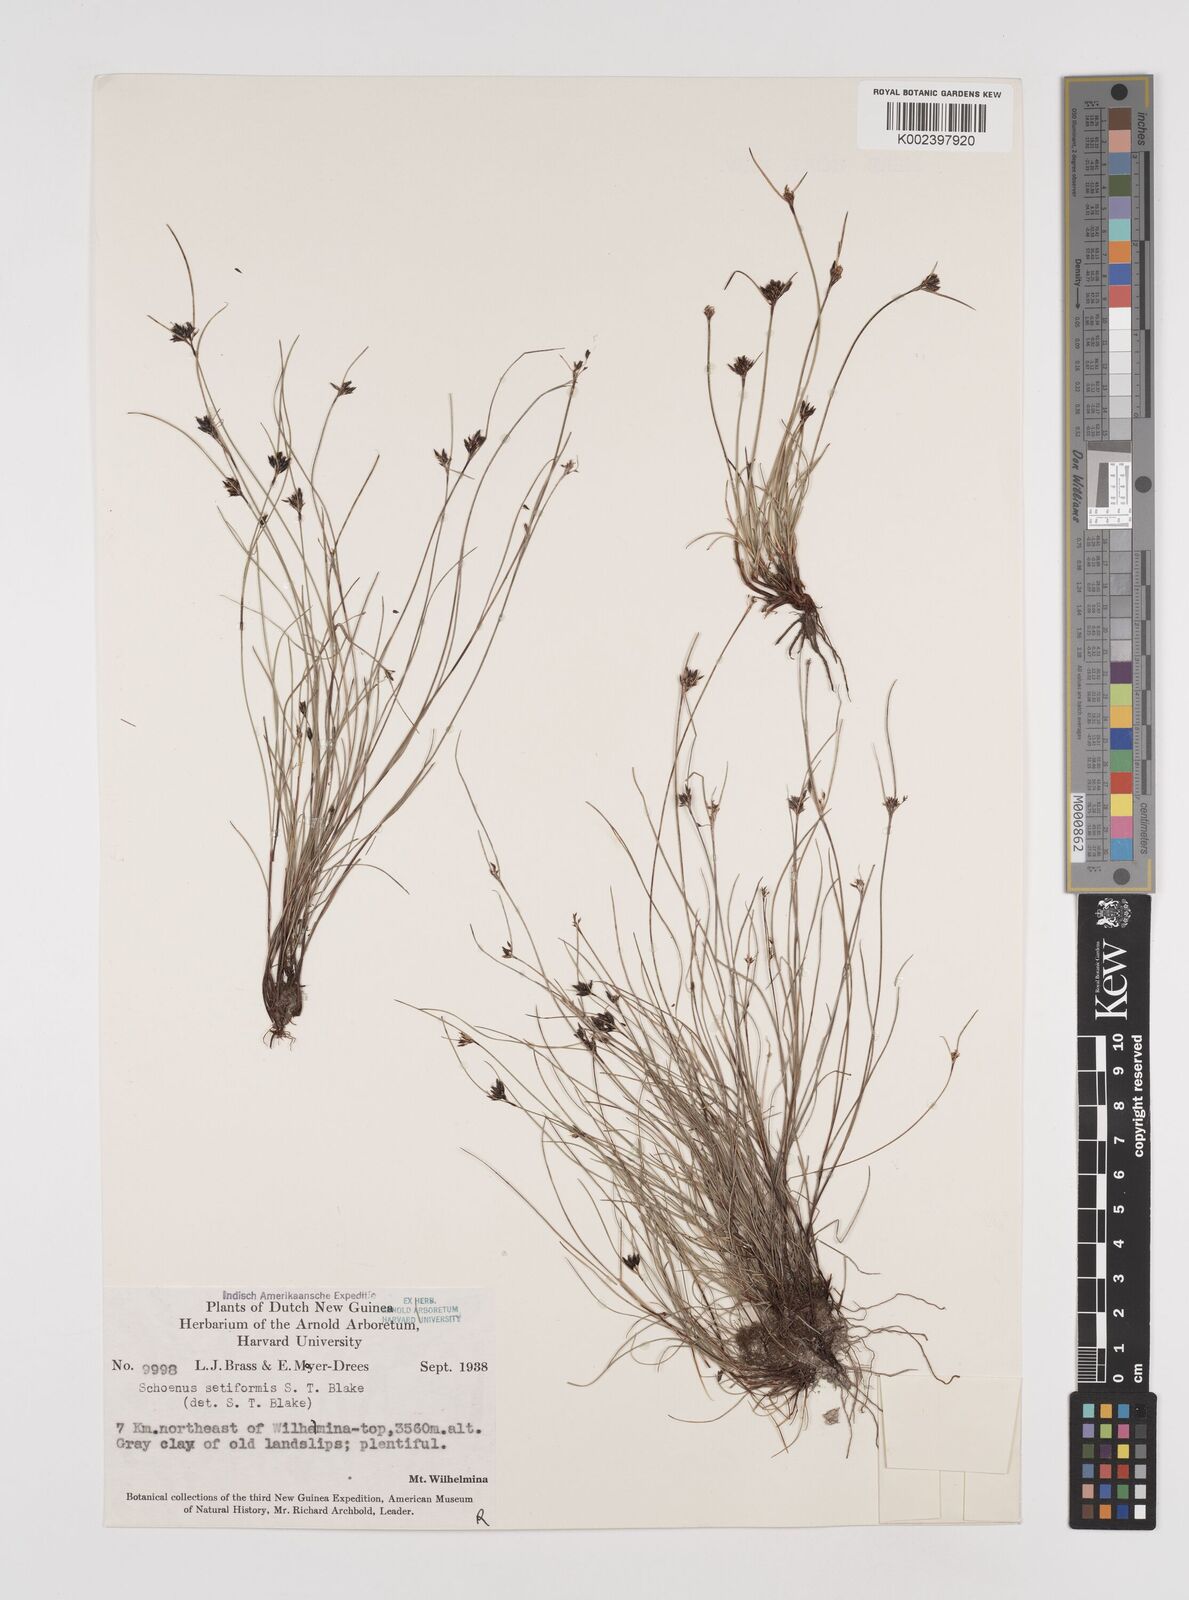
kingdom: Plantae
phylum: Tracheophyta
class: Liliopsida
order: Poales
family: Cyperaceae
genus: Schoenus
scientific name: Schoenus setiformis
